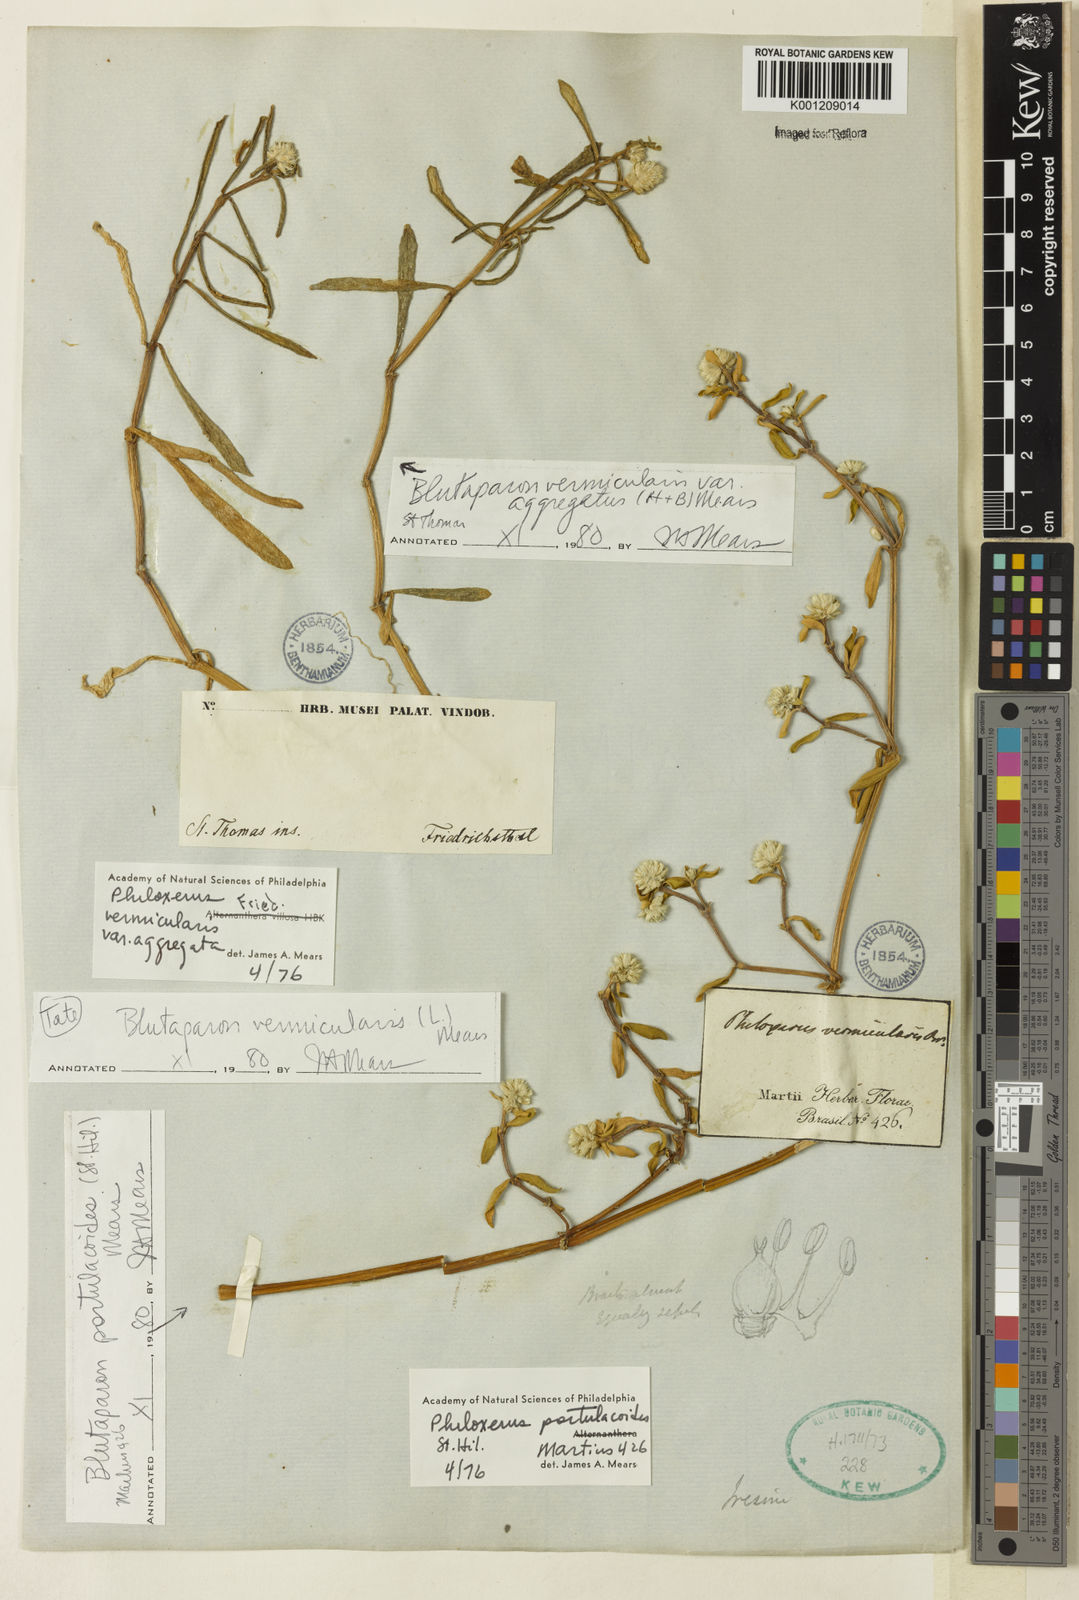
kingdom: Plantae
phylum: Tracheophyta
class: Magnoliopsida
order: Caryophyllales
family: Amaranthaceae
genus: Gomphrena
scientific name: Gomphrena portulacoides
